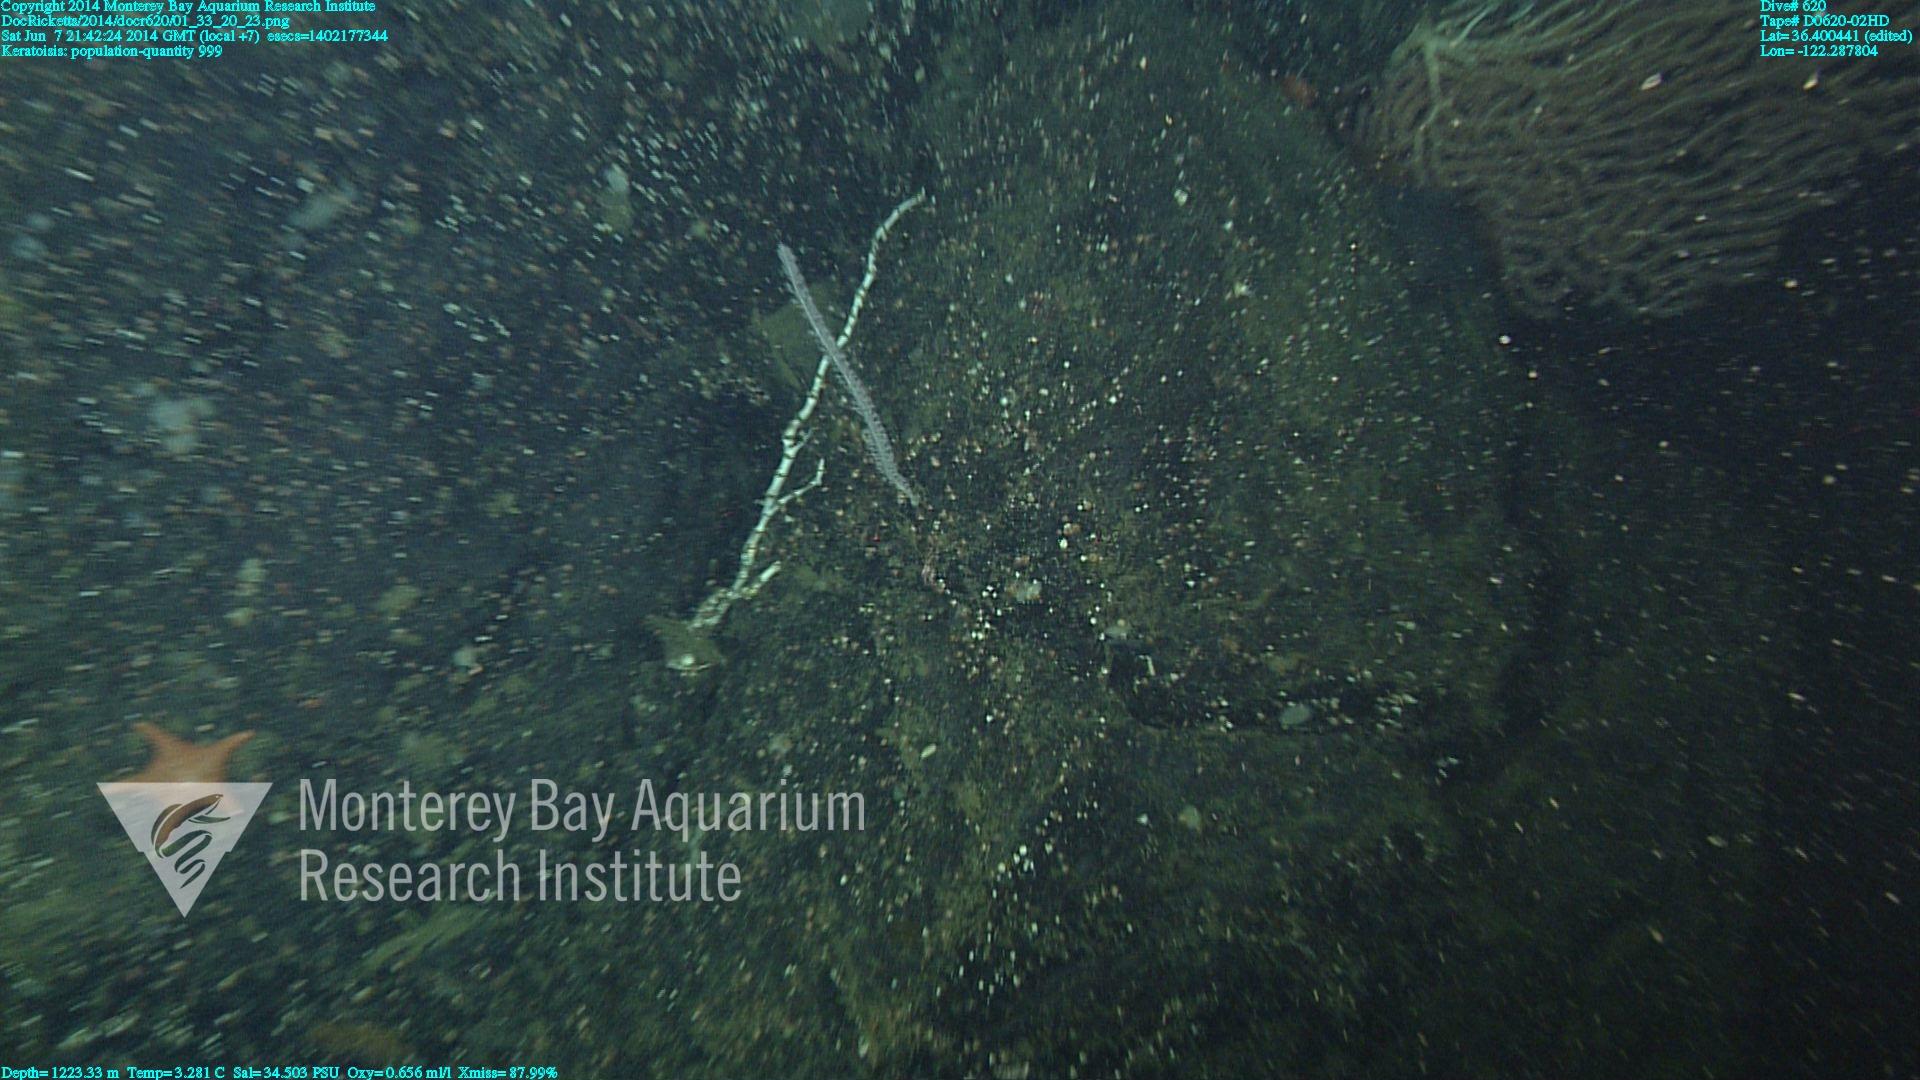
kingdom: Animalia
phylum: Cnidaria
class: Anthozoa
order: Scleralcyonacea
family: Keratoisididae
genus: Keratoisis
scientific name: Keratoisis
